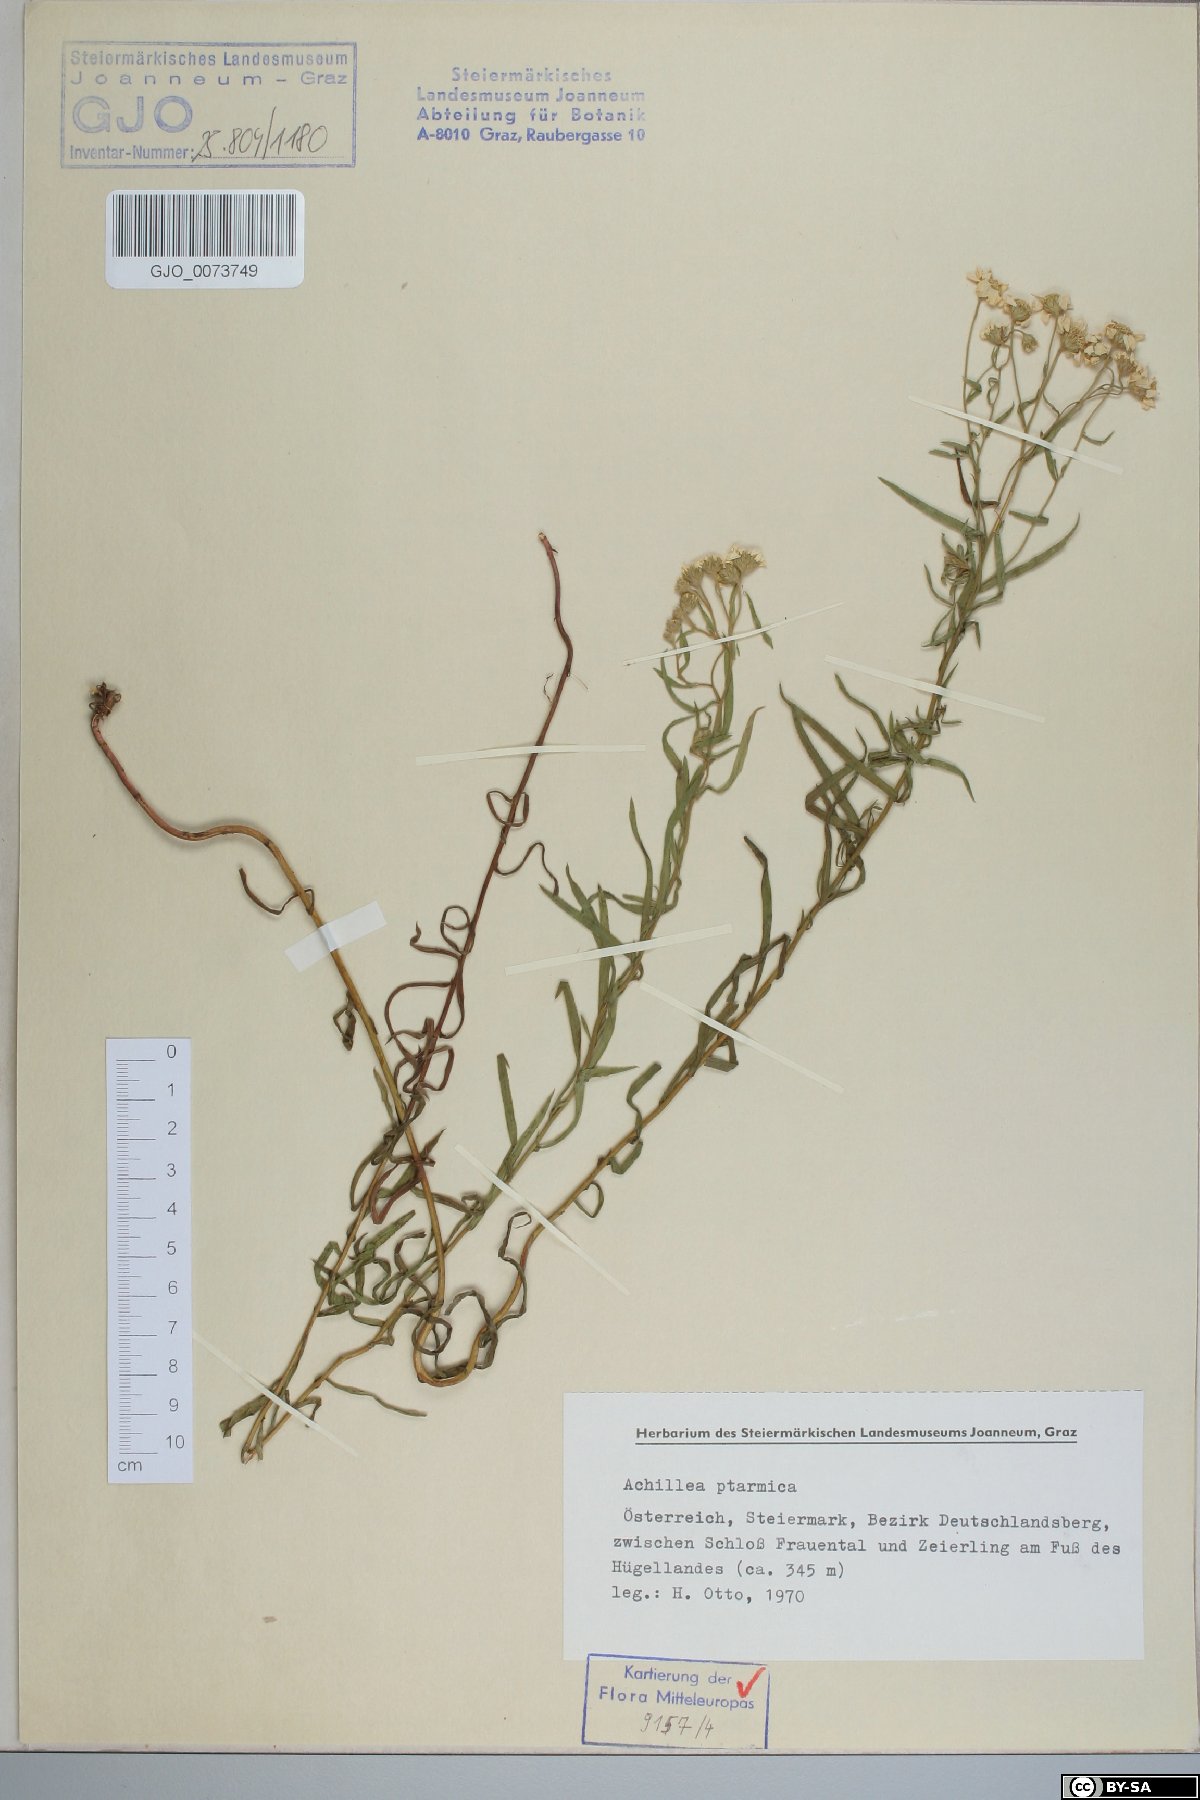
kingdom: Plantae
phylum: Tracheophyta
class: Magnoliopsida
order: Asterales
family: Asteraceae
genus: Achillea
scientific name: Achillea ptarmica
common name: Sneezeweed
